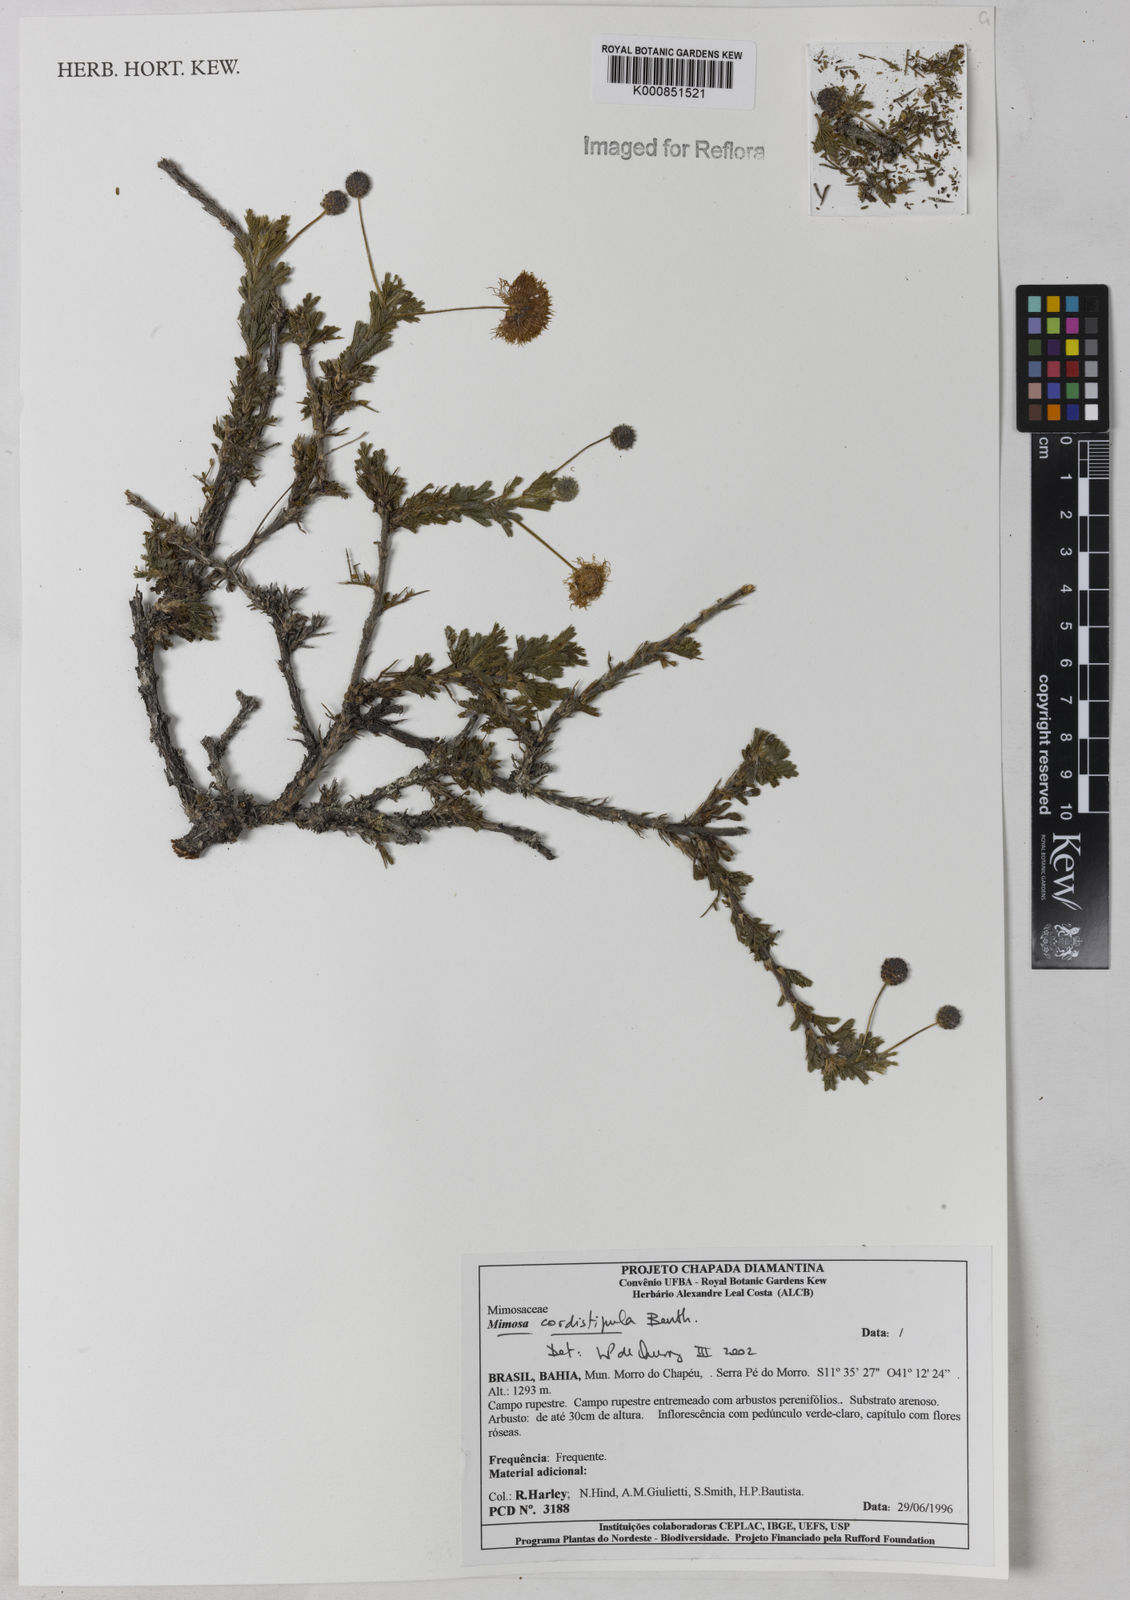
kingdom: Plantae
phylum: Tracheophyta
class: Magnoliopsida
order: Fabales
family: Fabaceae
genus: Mimosa
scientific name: Mimosa cordistipula
